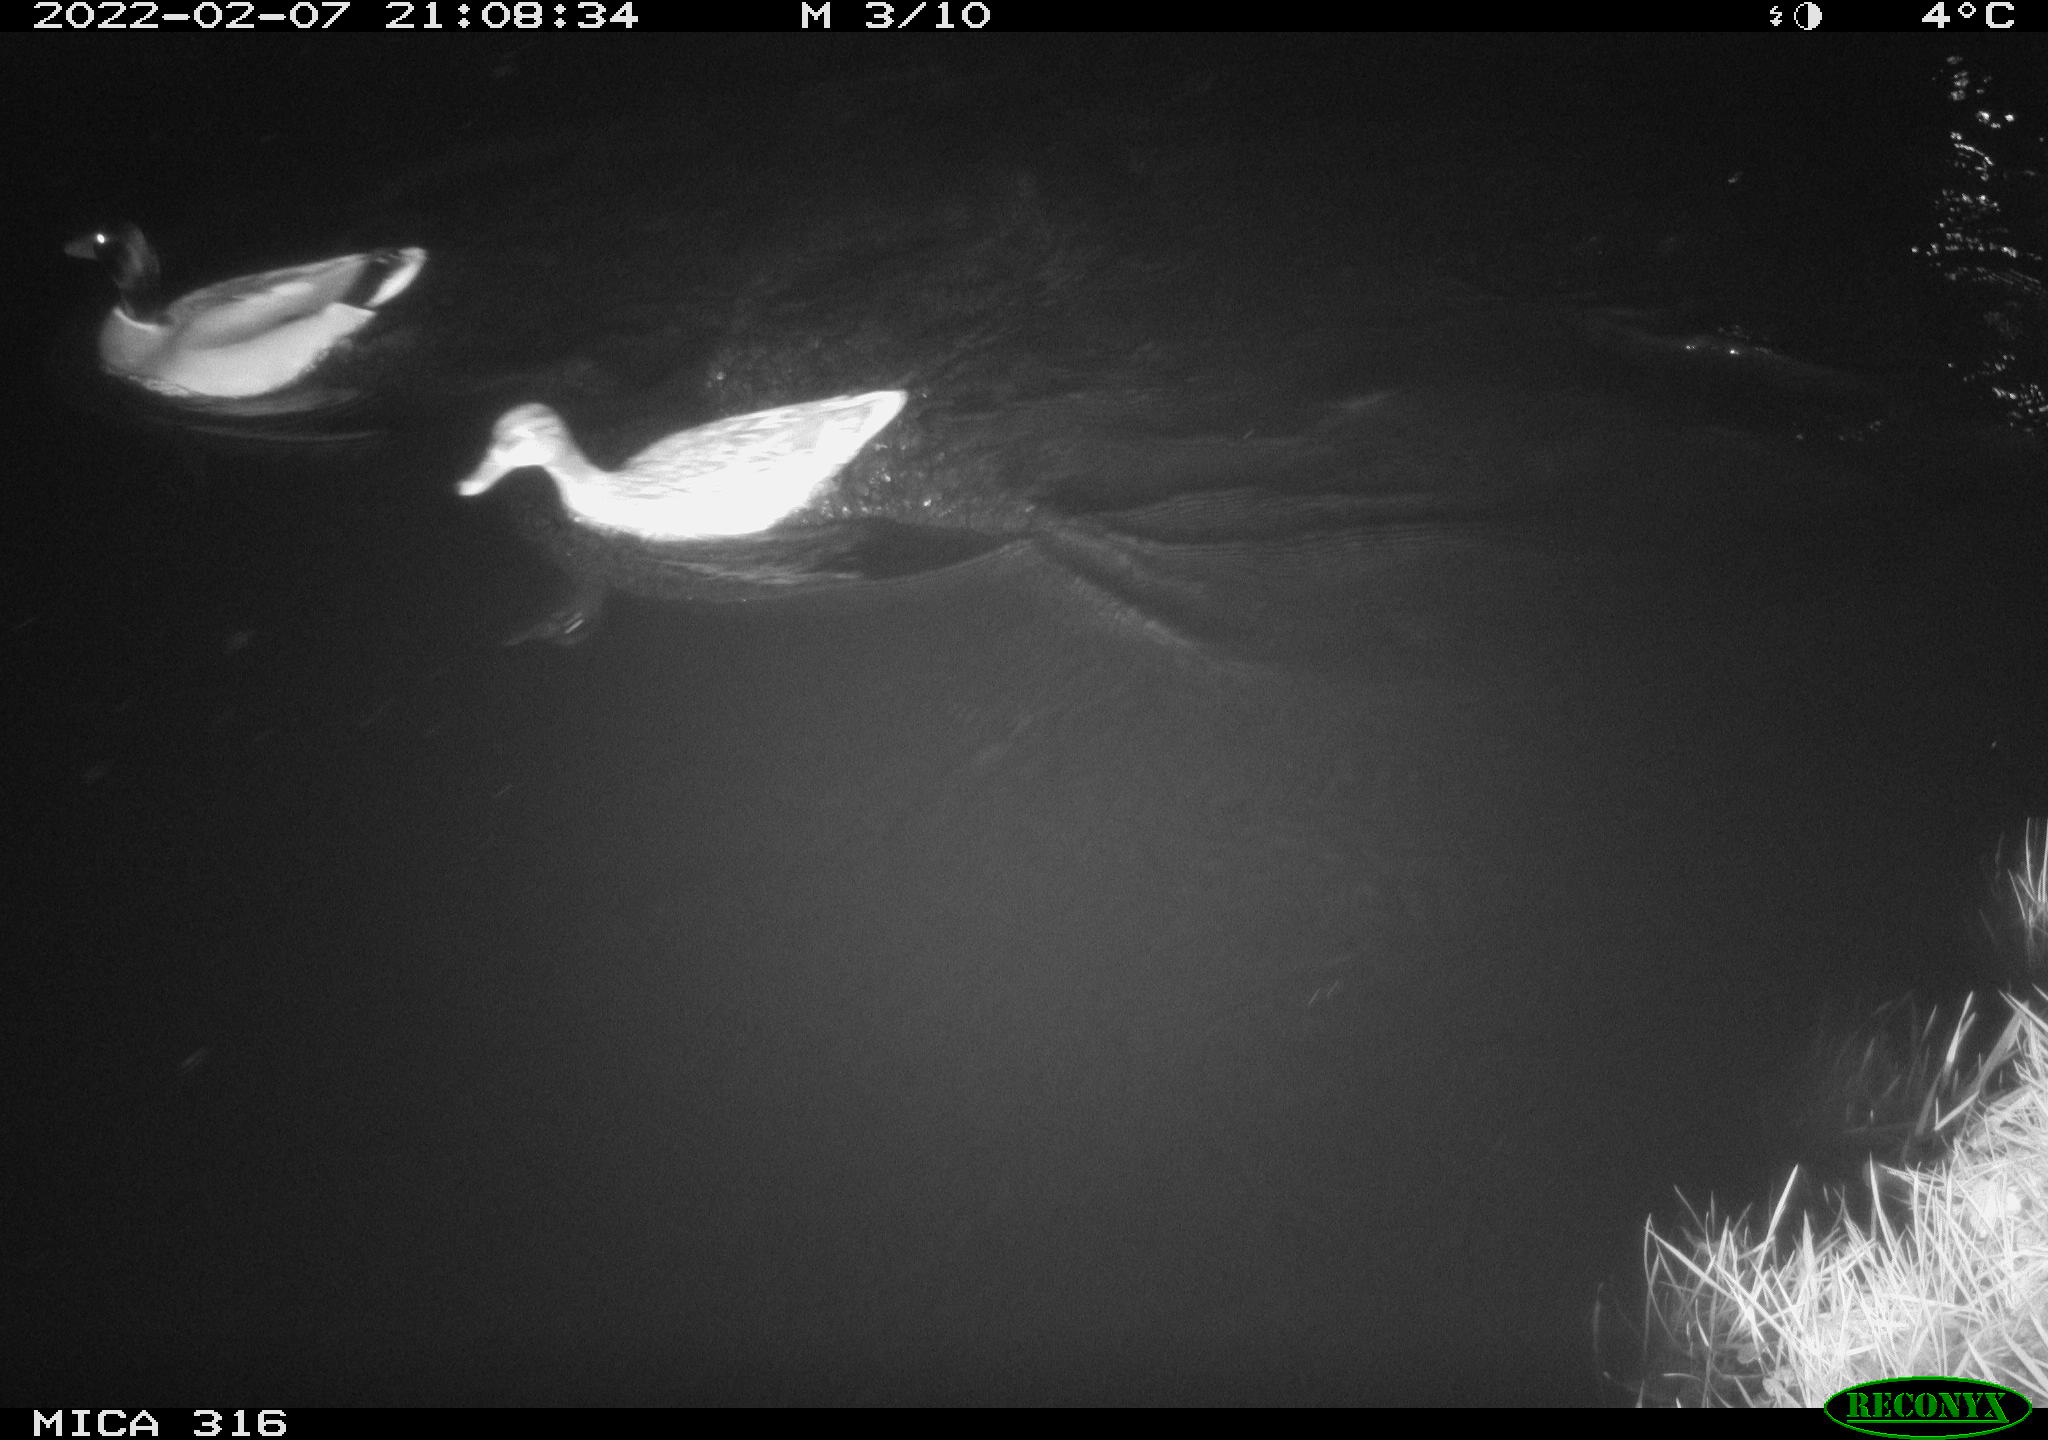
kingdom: Animalia
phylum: Chordata
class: Aves
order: Anseriformes
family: Anatidae
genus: Anas
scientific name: Anas platyrhynchos
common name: Mallard
